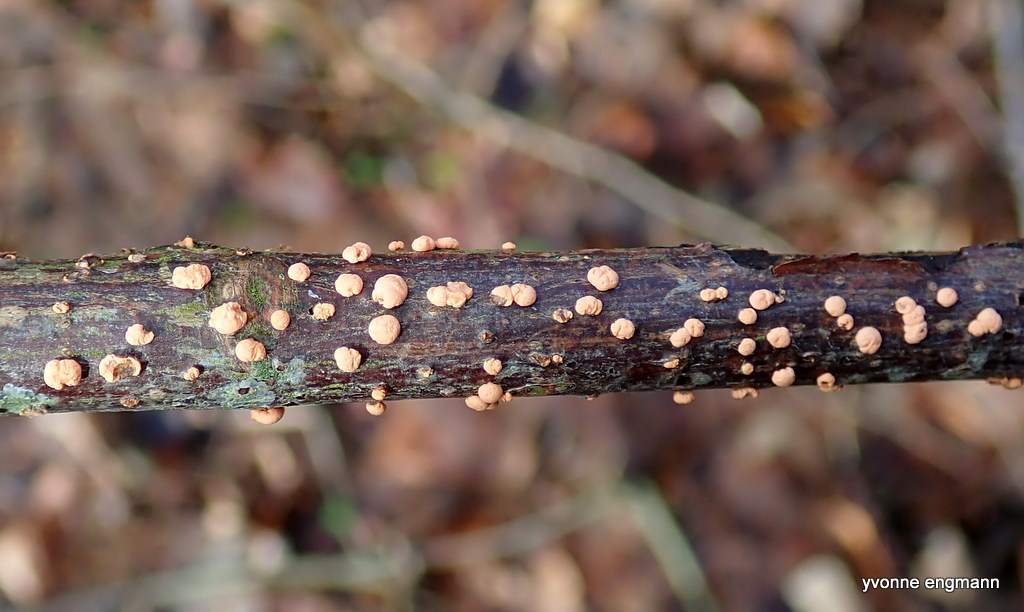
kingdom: Fungi
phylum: Ascomycota
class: Sordariomycetes
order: Hypocreales
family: Nectriaceae
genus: Nectria
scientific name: Nectria cinnabarina
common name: almindelig cinnobersvamp
